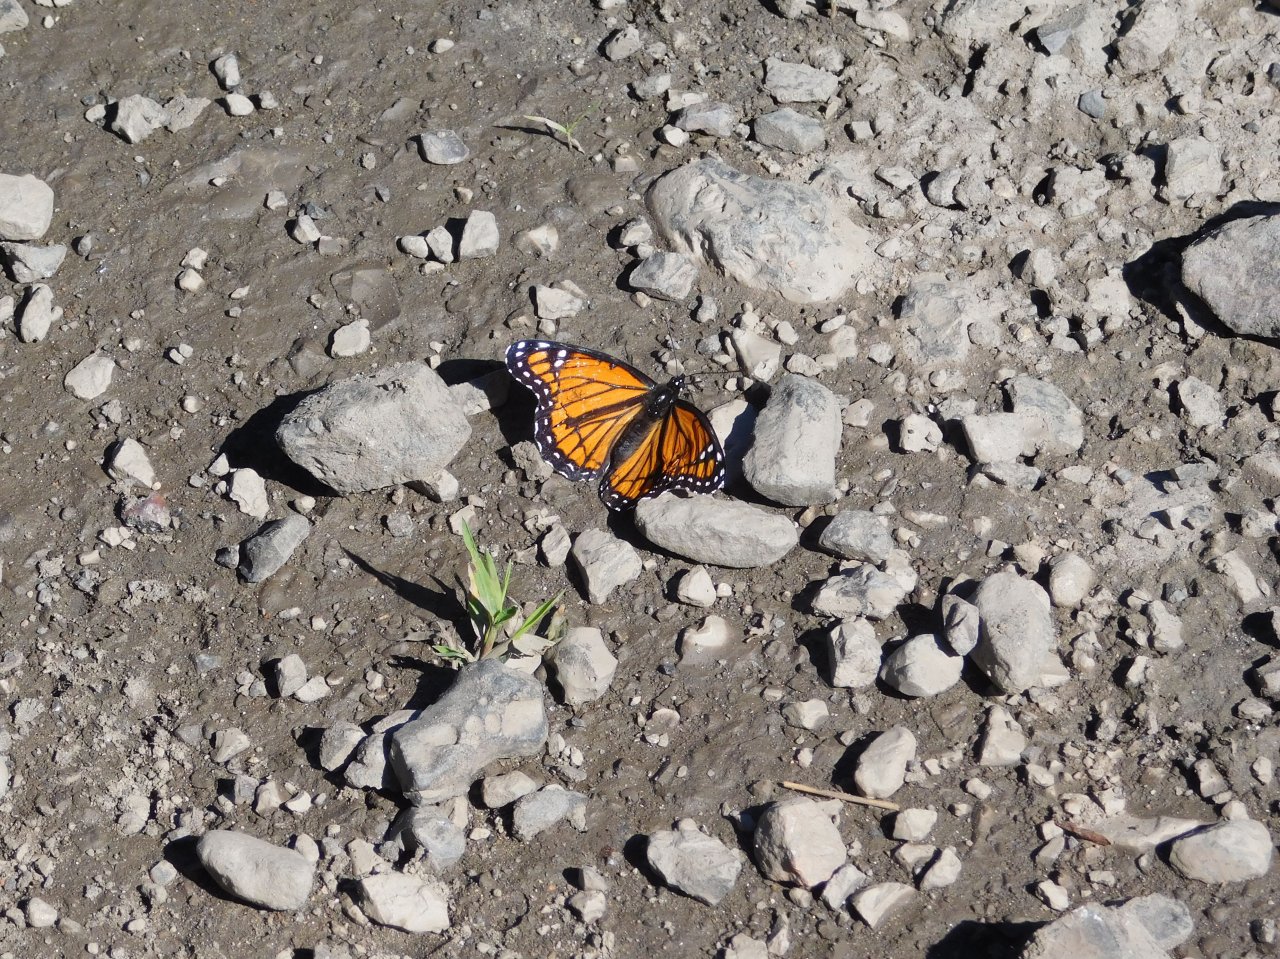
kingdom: Animalia
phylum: Arthropoda
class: Insecta
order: Lepidoptera
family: Nymphalidae
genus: Limenitis
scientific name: Limenitis archippus
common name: Viceroy
